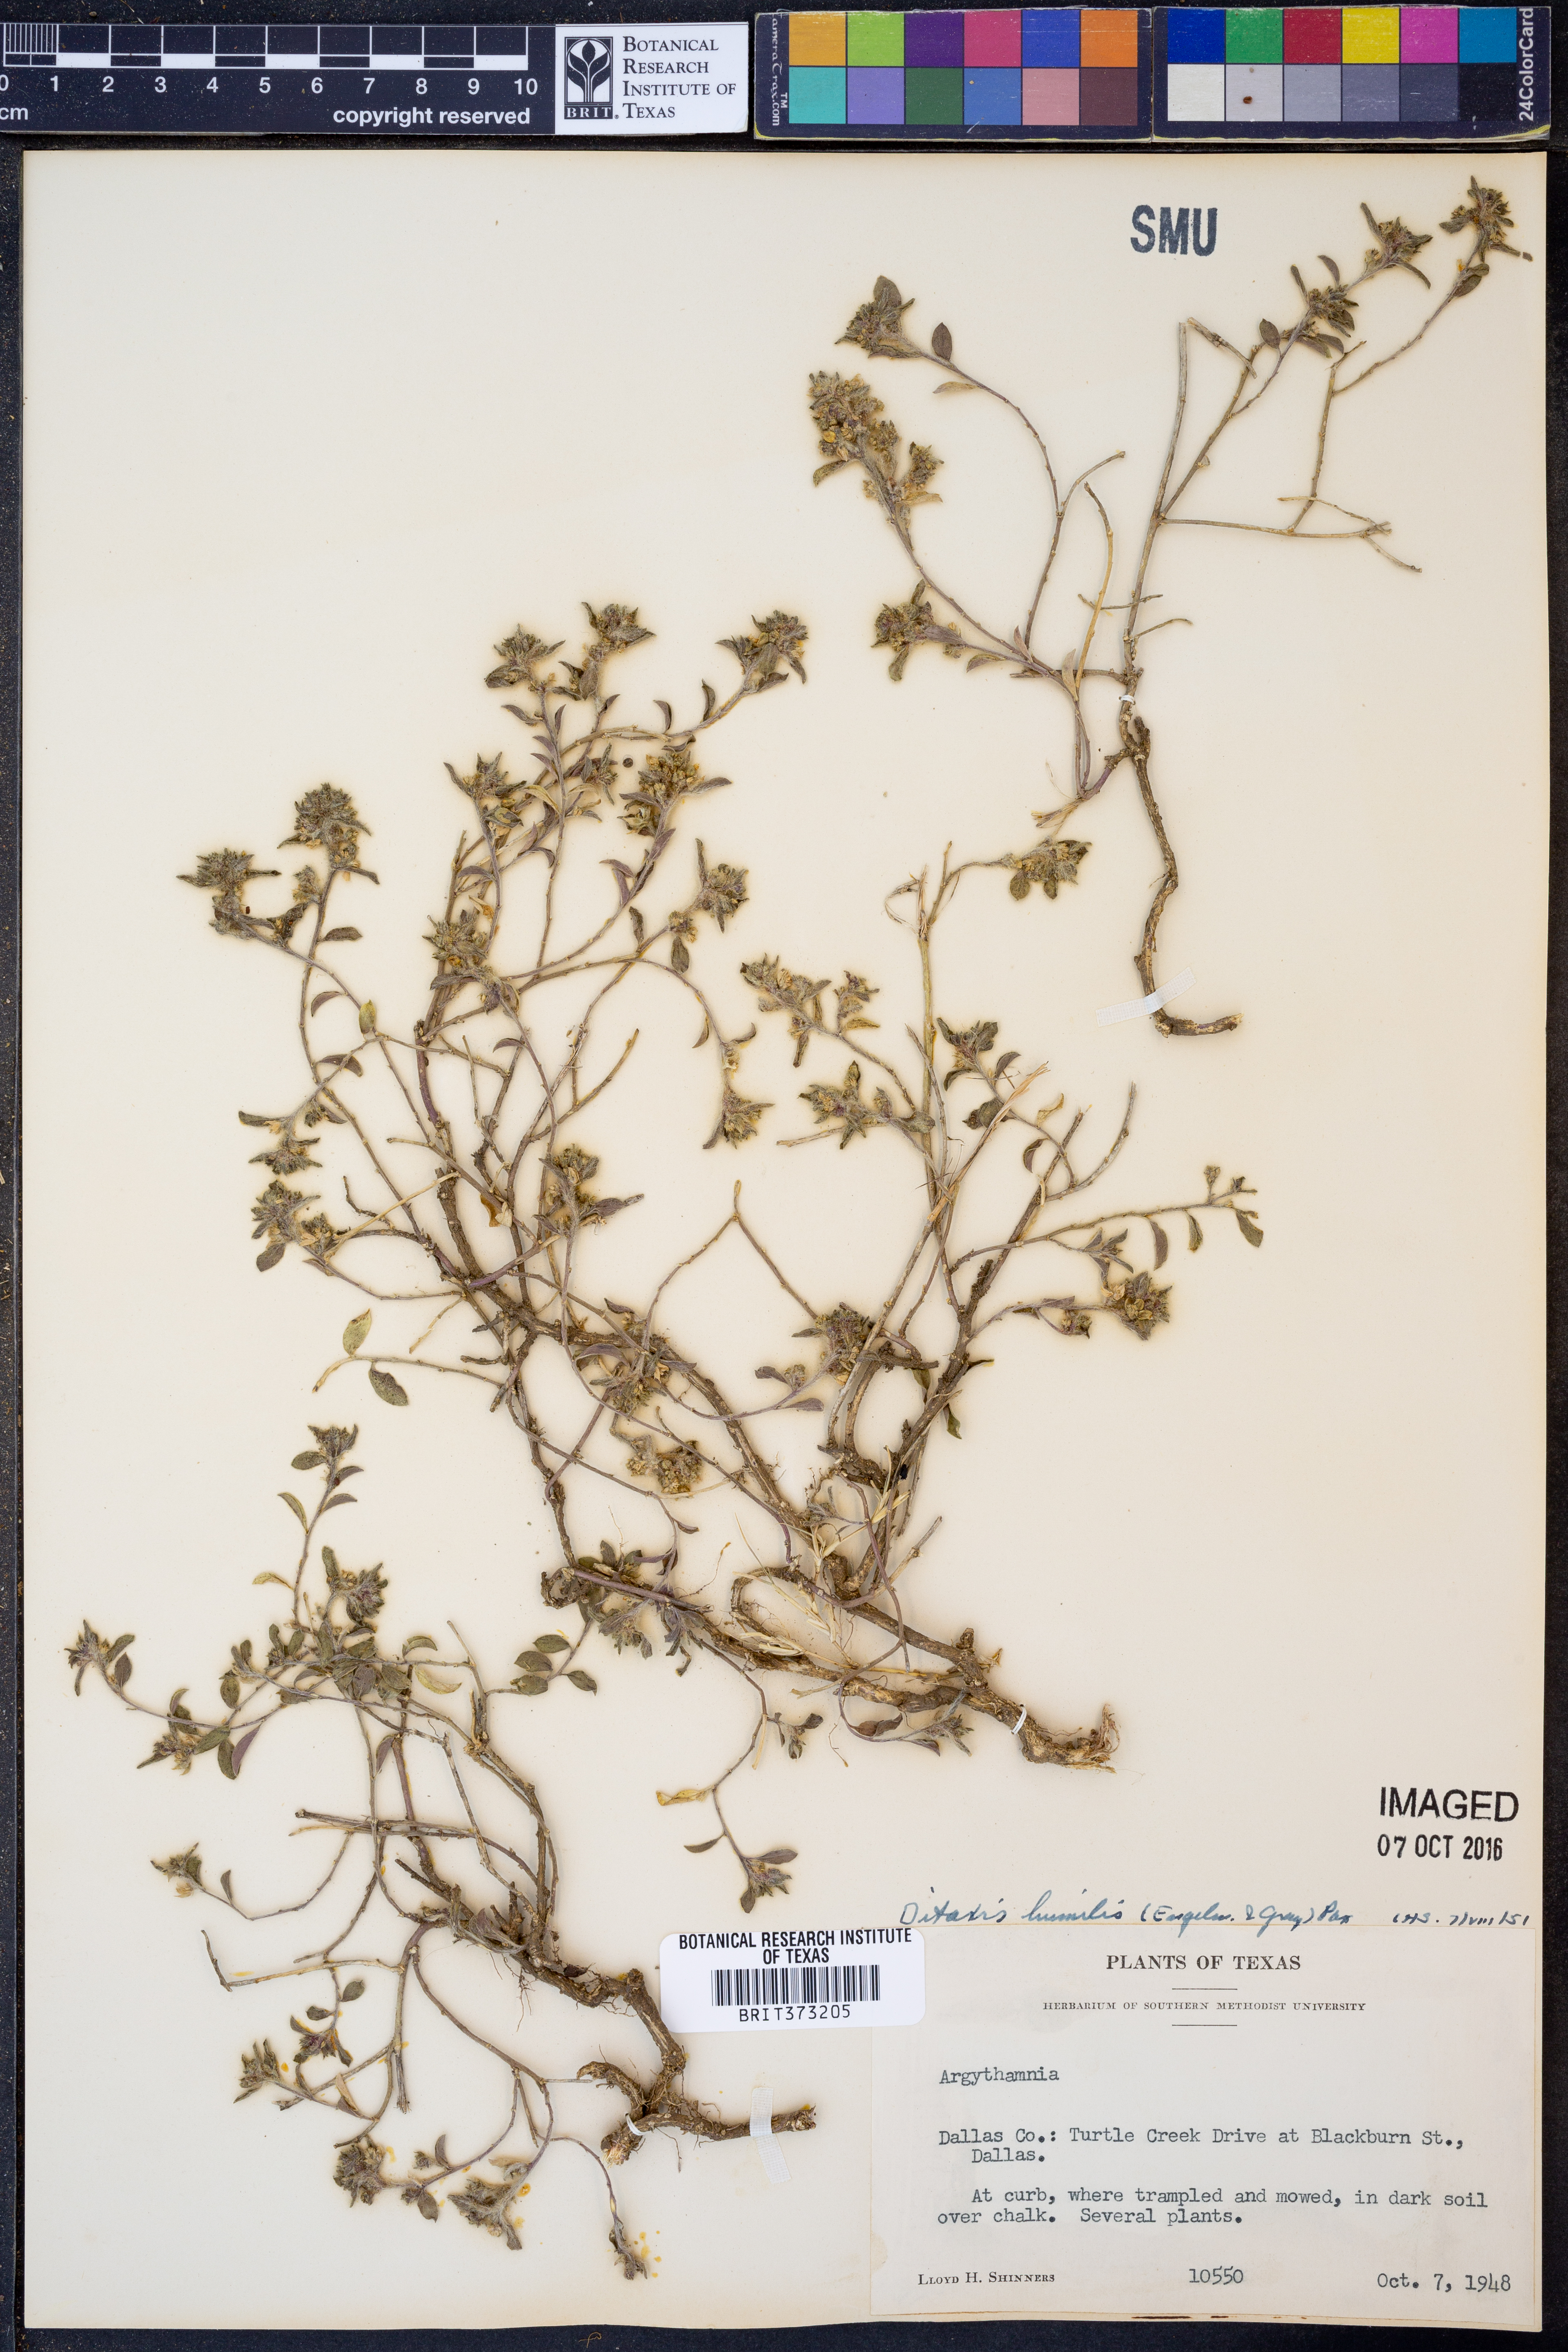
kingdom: Plantae
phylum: Tracheophyta
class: Magnoliopsida
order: Malpighiales
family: Euphorbiaceae
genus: Ditaxis
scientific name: Ditaxis humilis
